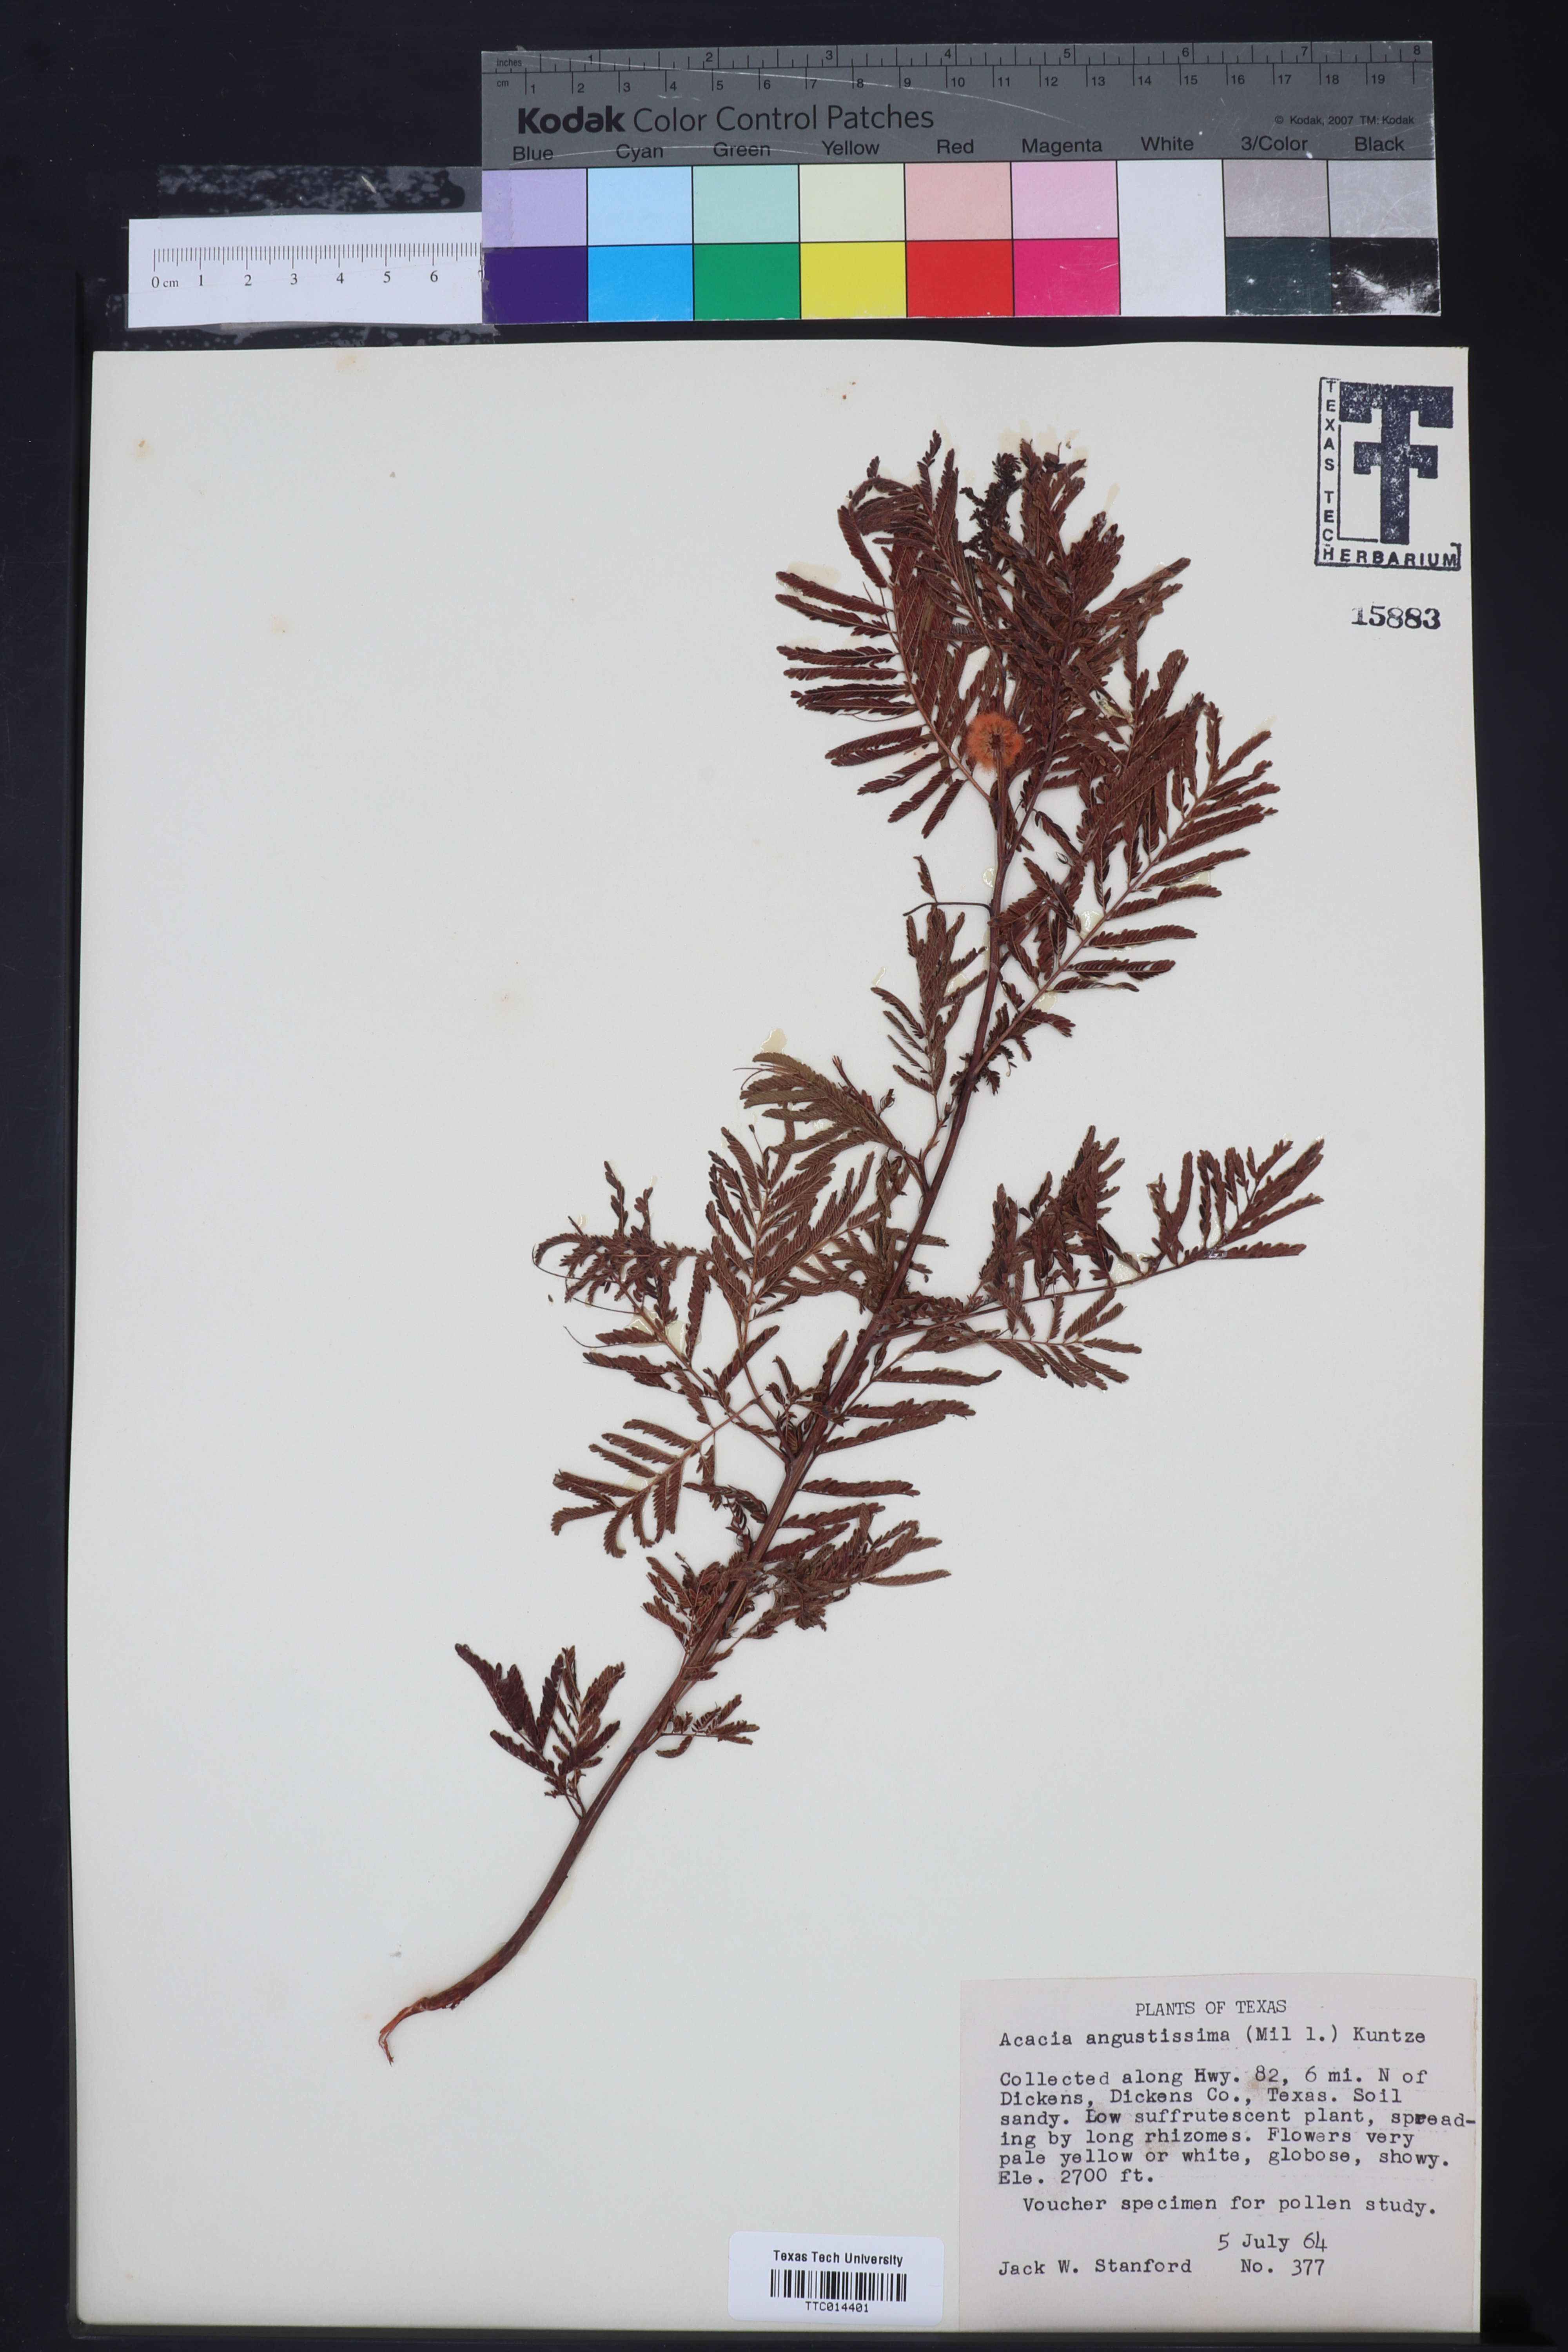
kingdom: Plantae
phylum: Tracheophyta
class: Magnoliopsida
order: Fabales
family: Fabaceae
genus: Acaciella
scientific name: Acaciella angustissima
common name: Prairie acacia
